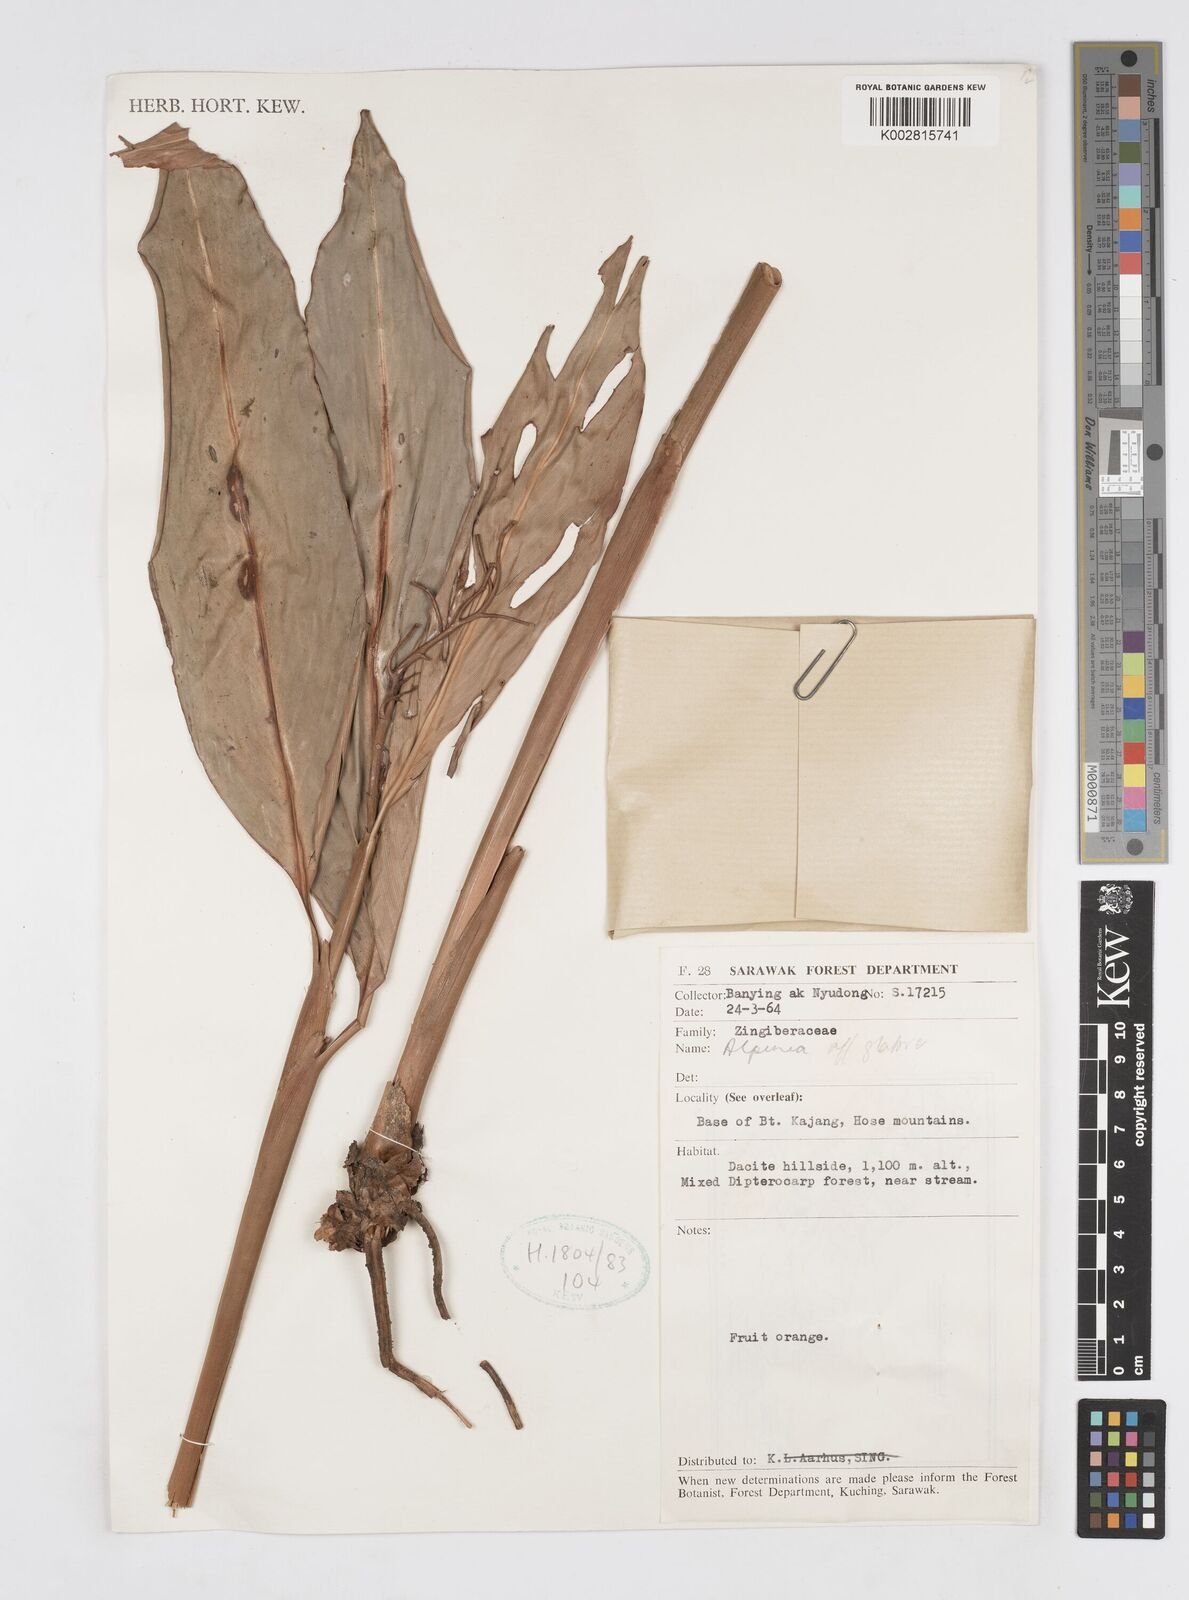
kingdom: Plantae
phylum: Tracheophyta
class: Liliopsida
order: Zingiberales
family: Zingiberaceae
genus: Alpinia
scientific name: Alpinia glabra
